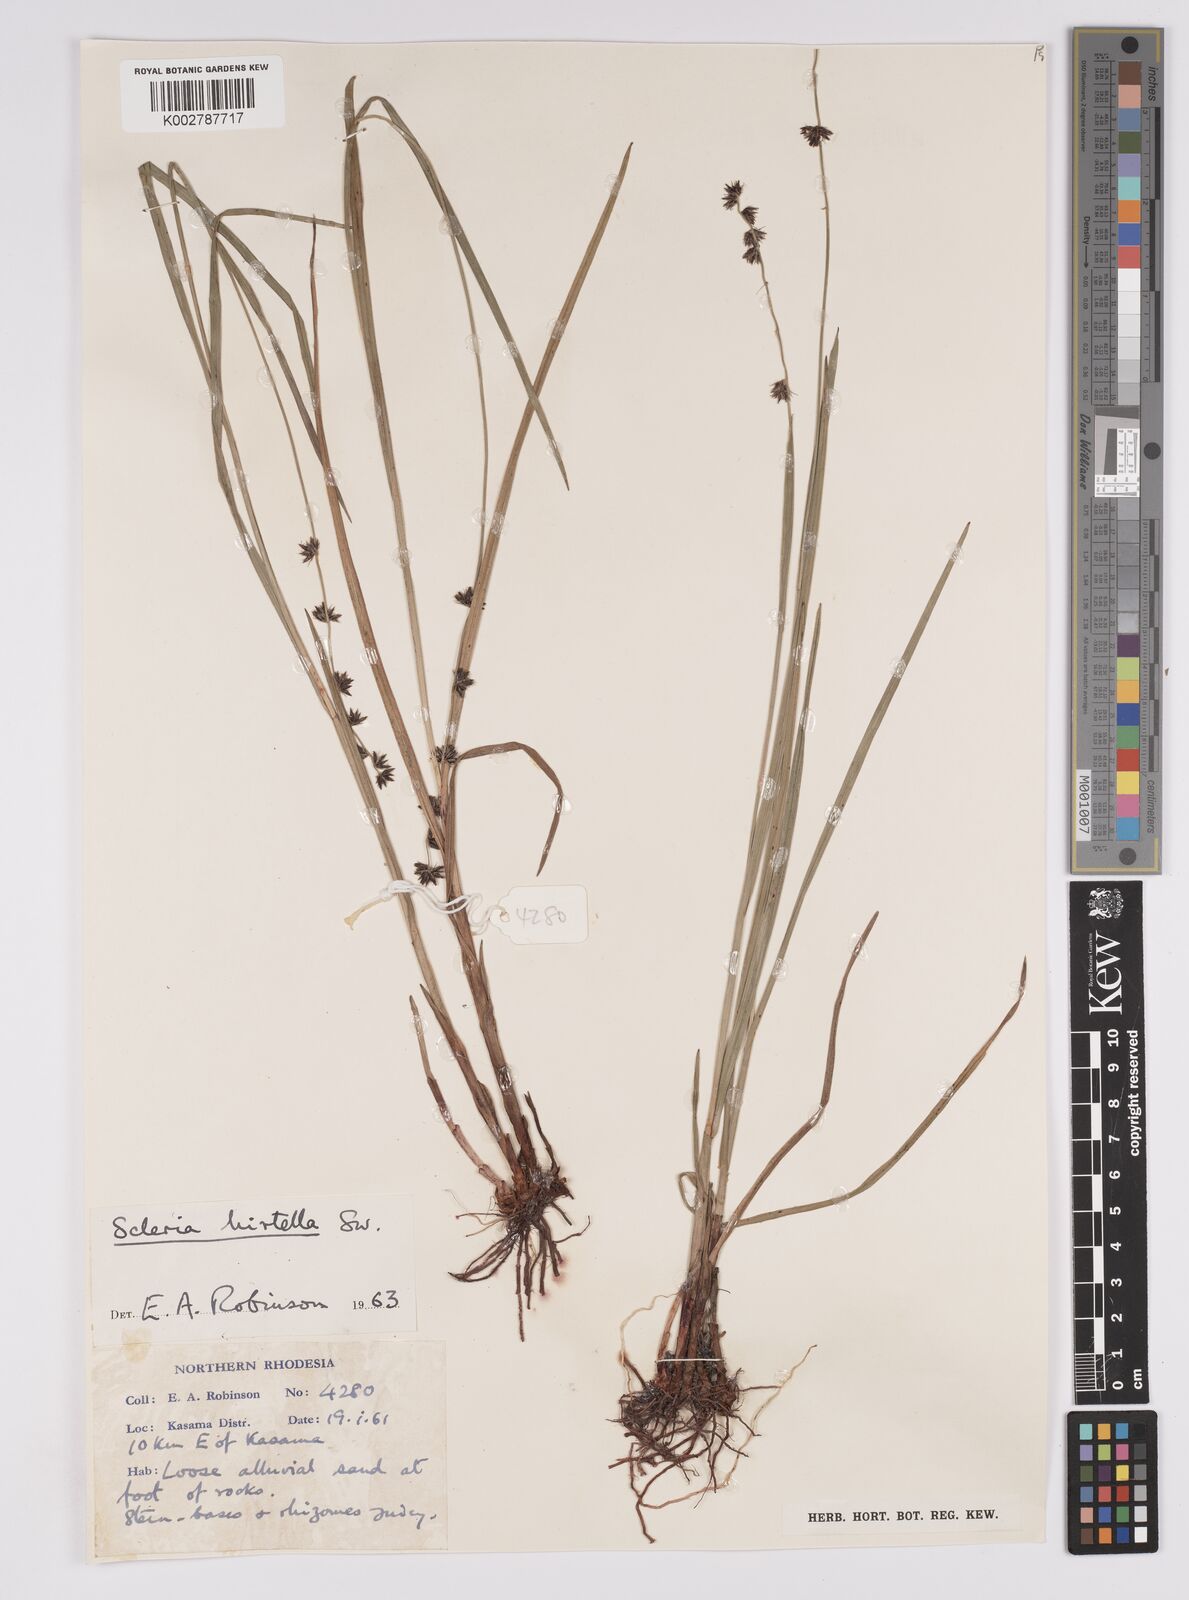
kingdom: Plantae
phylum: Tracheophyta
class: Liliopsida
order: Poales
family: Cyperaceae
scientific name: Cyperaceae
